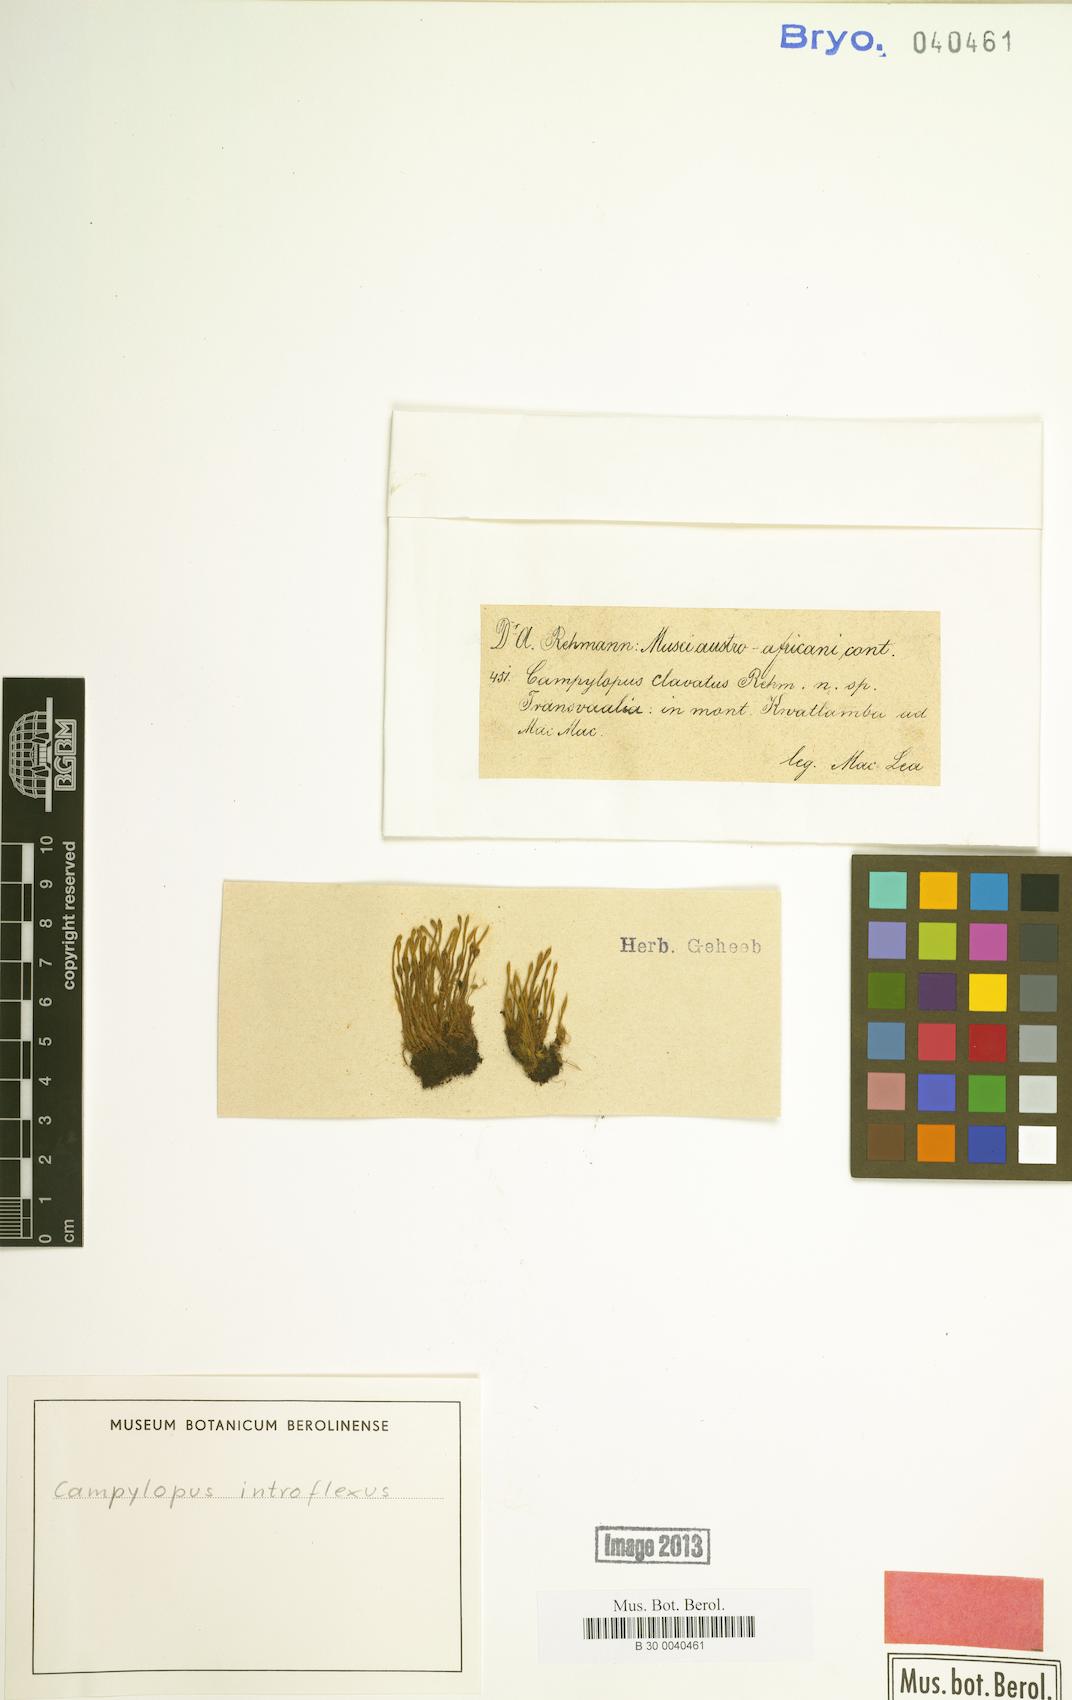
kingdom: Plantae
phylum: Bryophyta
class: Bryopsida
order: Dicranales
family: Leucobryaceae
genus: Campylopus
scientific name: Campylopus introflexus
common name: Heath star moss
